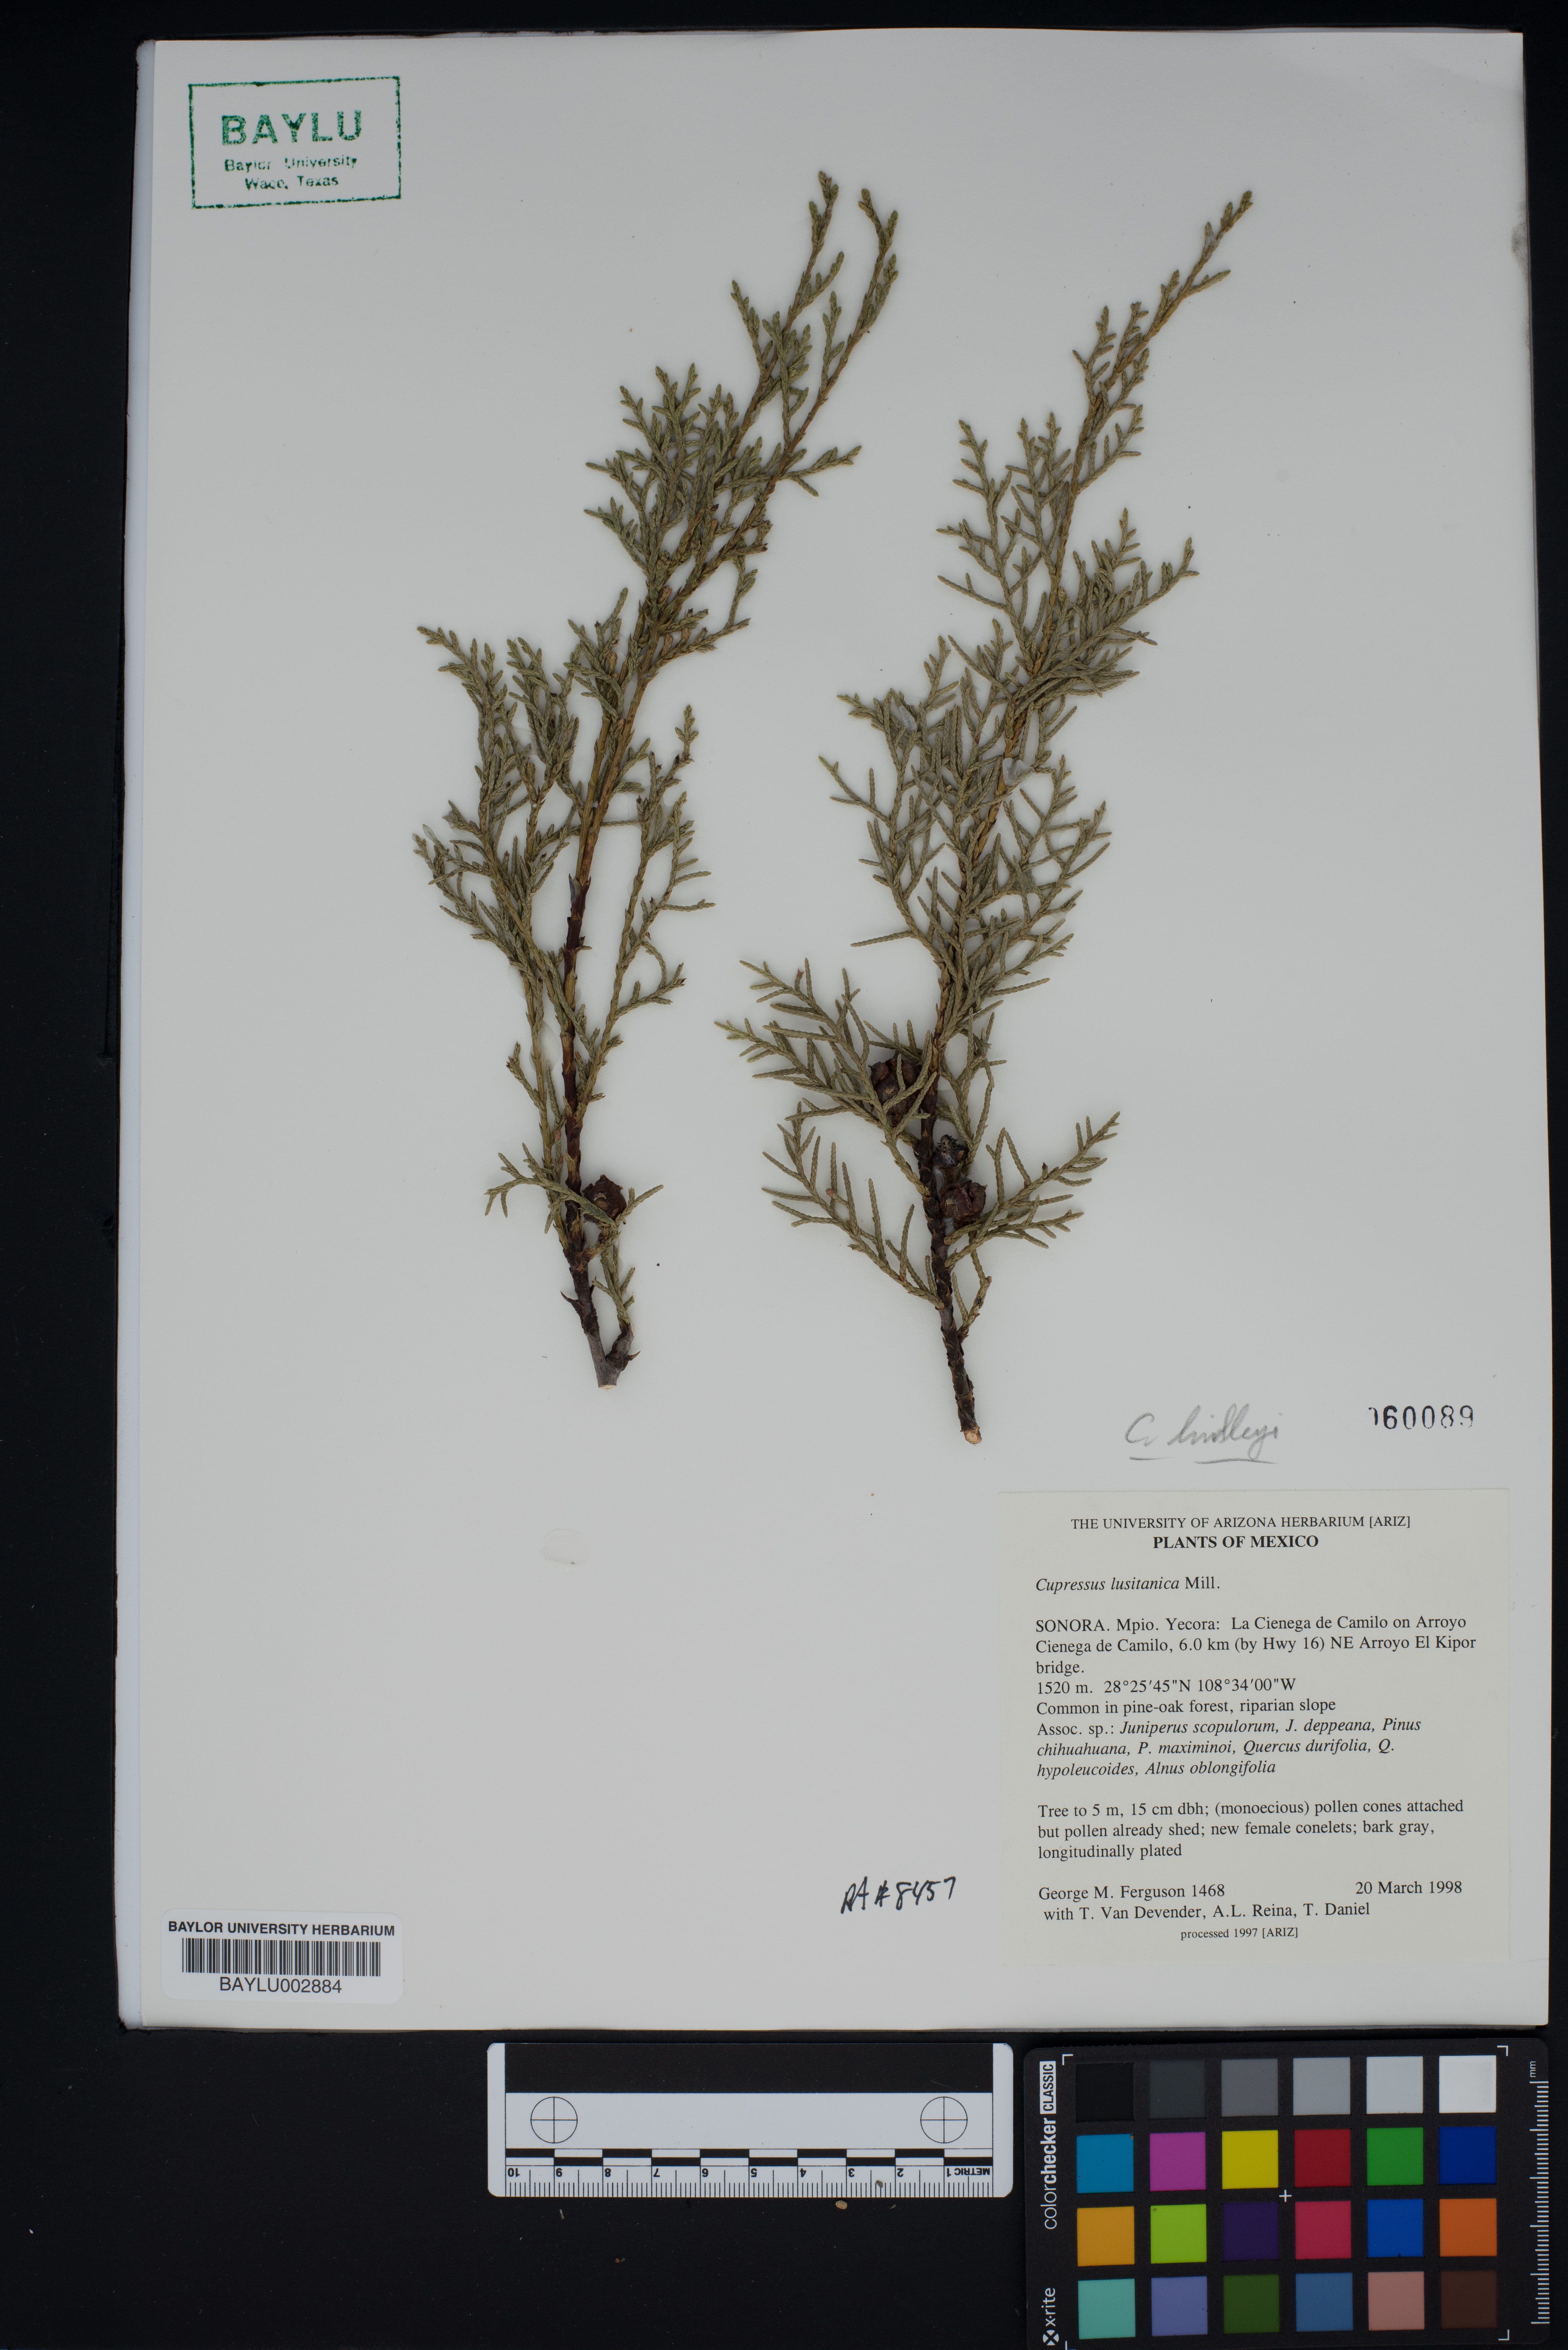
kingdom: Plantae
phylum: Tracheophyta
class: Pinopsida
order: Pinales
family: Cupressaceae
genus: Cupressus
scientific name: Cupressus lusitanica
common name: Mexican cypress
